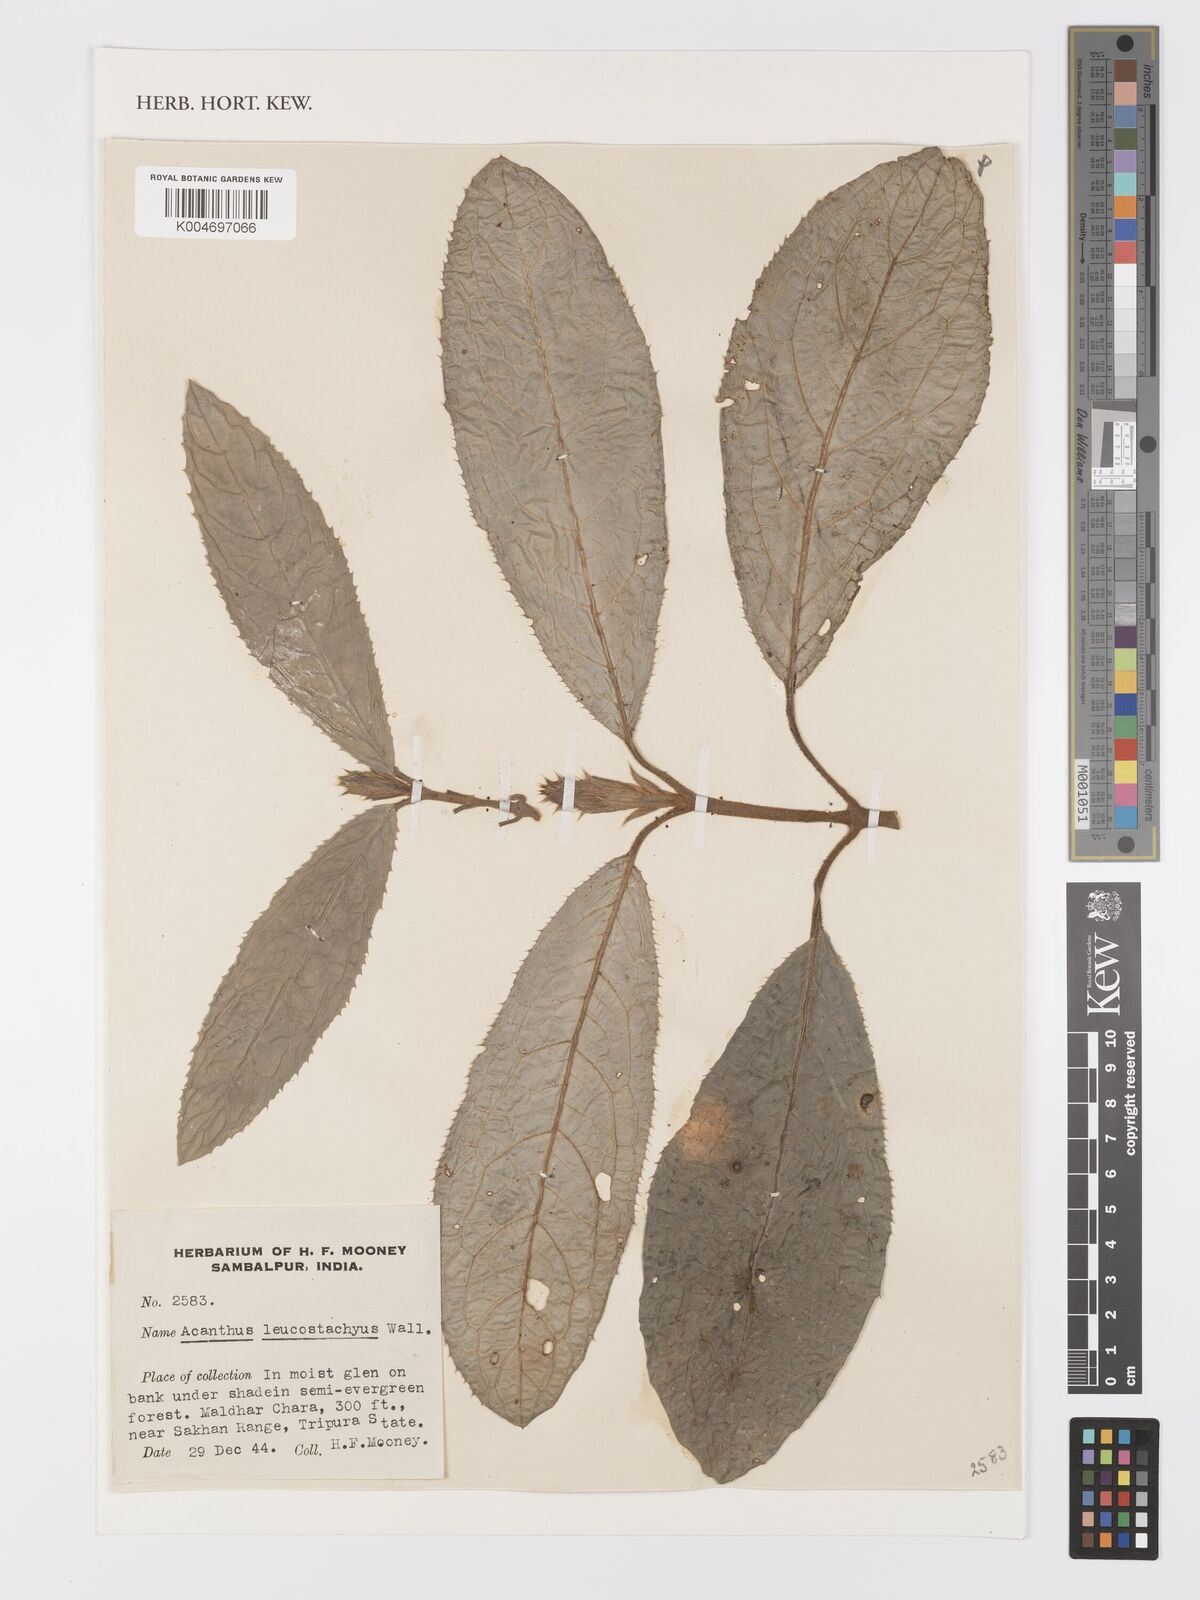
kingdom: Plantae
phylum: Tracheophyta
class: Magnoliopsida
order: Lamiales
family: Acanthaceae
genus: Acanthus
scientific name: Acanthus leucostachyus
